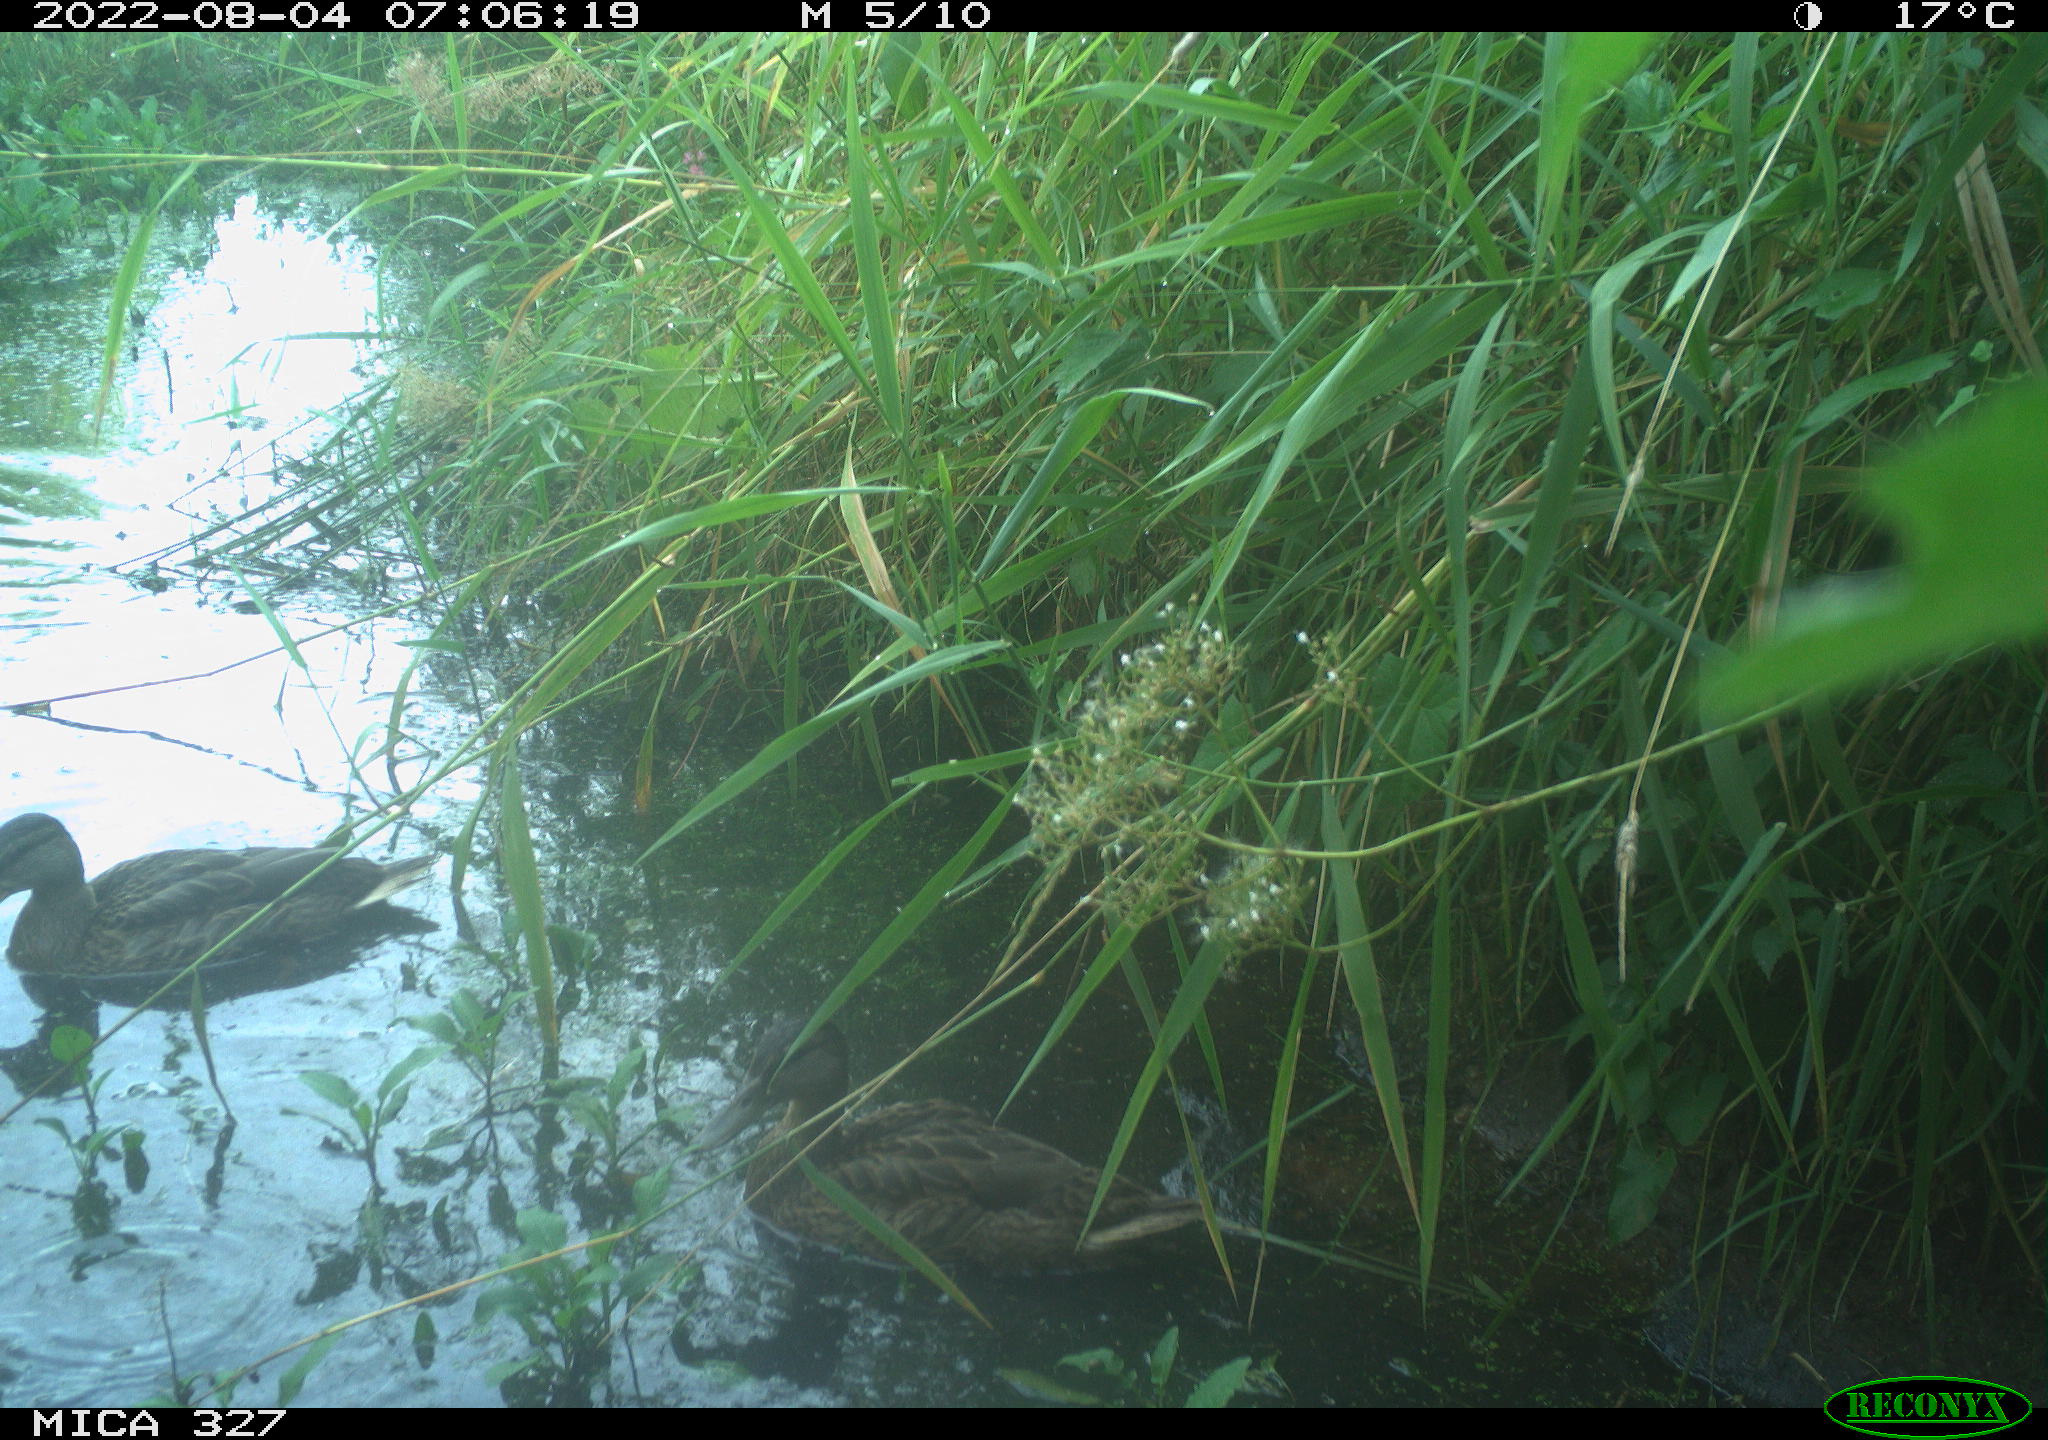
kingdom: Animalia
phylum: Chordata
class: Aves
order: Anseriformes
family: Anatidae
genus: Anas
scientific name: Anas
